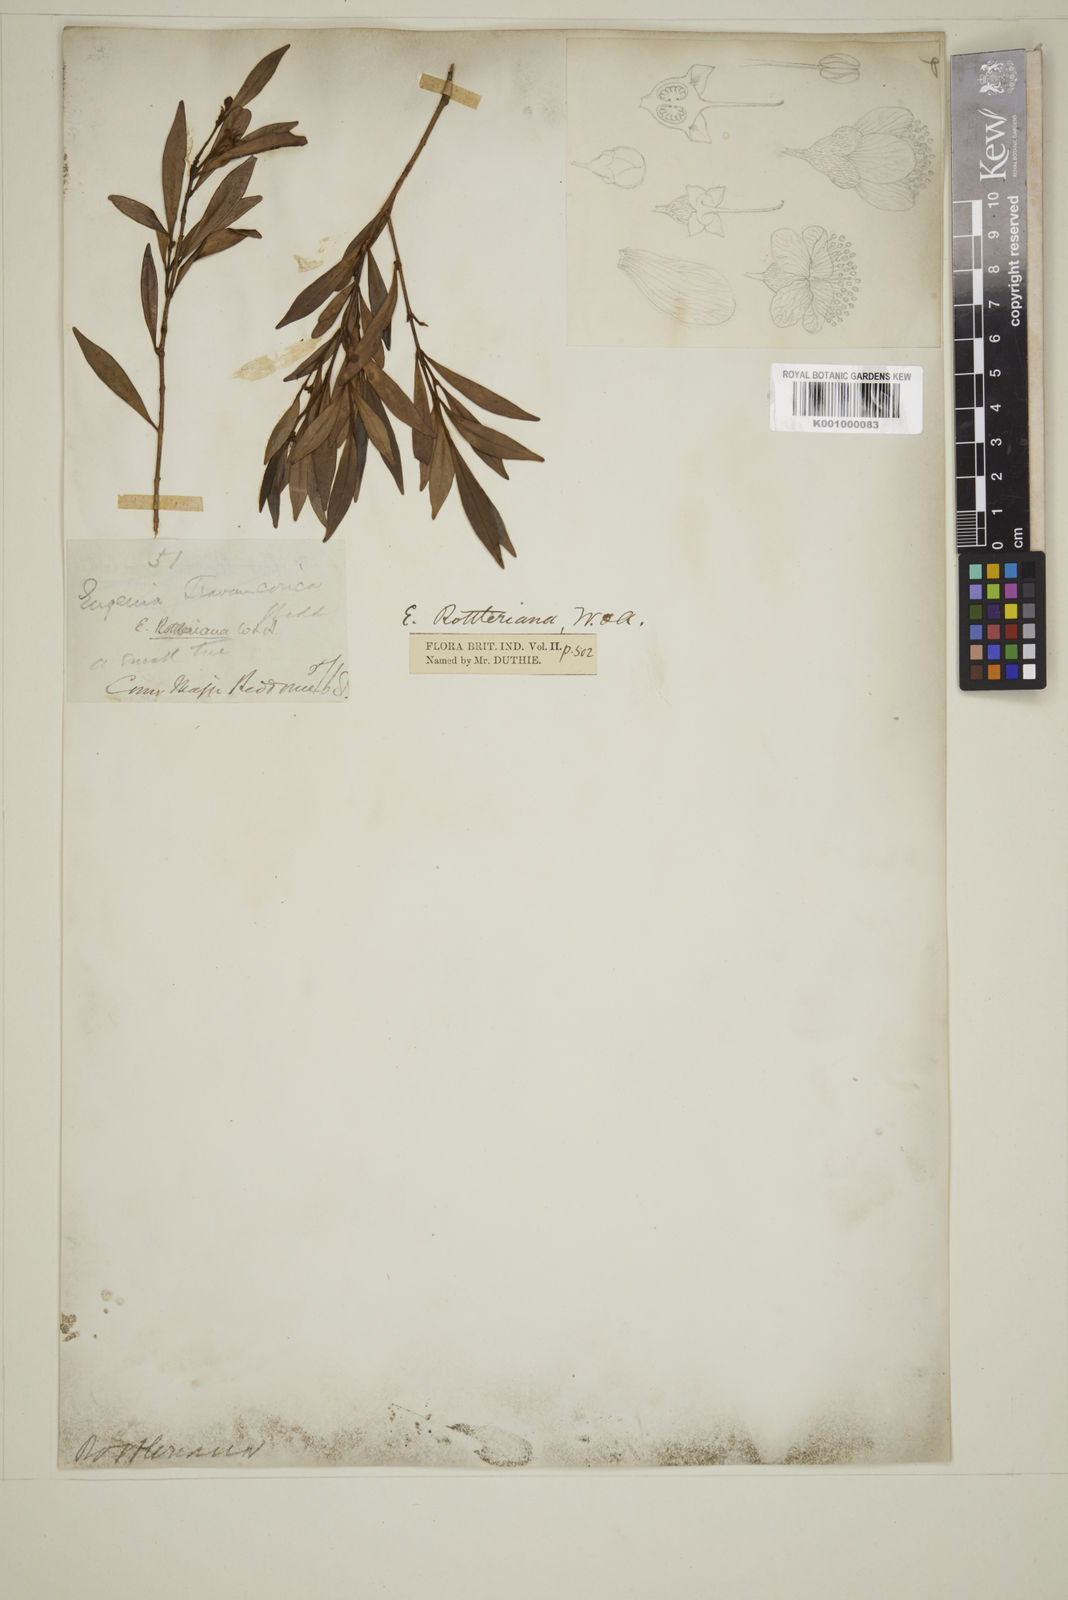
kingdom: Plantae
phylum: Tracheophyta
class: Magnoliopsida
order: Myrtales
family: Myrtaceae
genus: Eugenia
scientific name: Eugenia rottleriana
